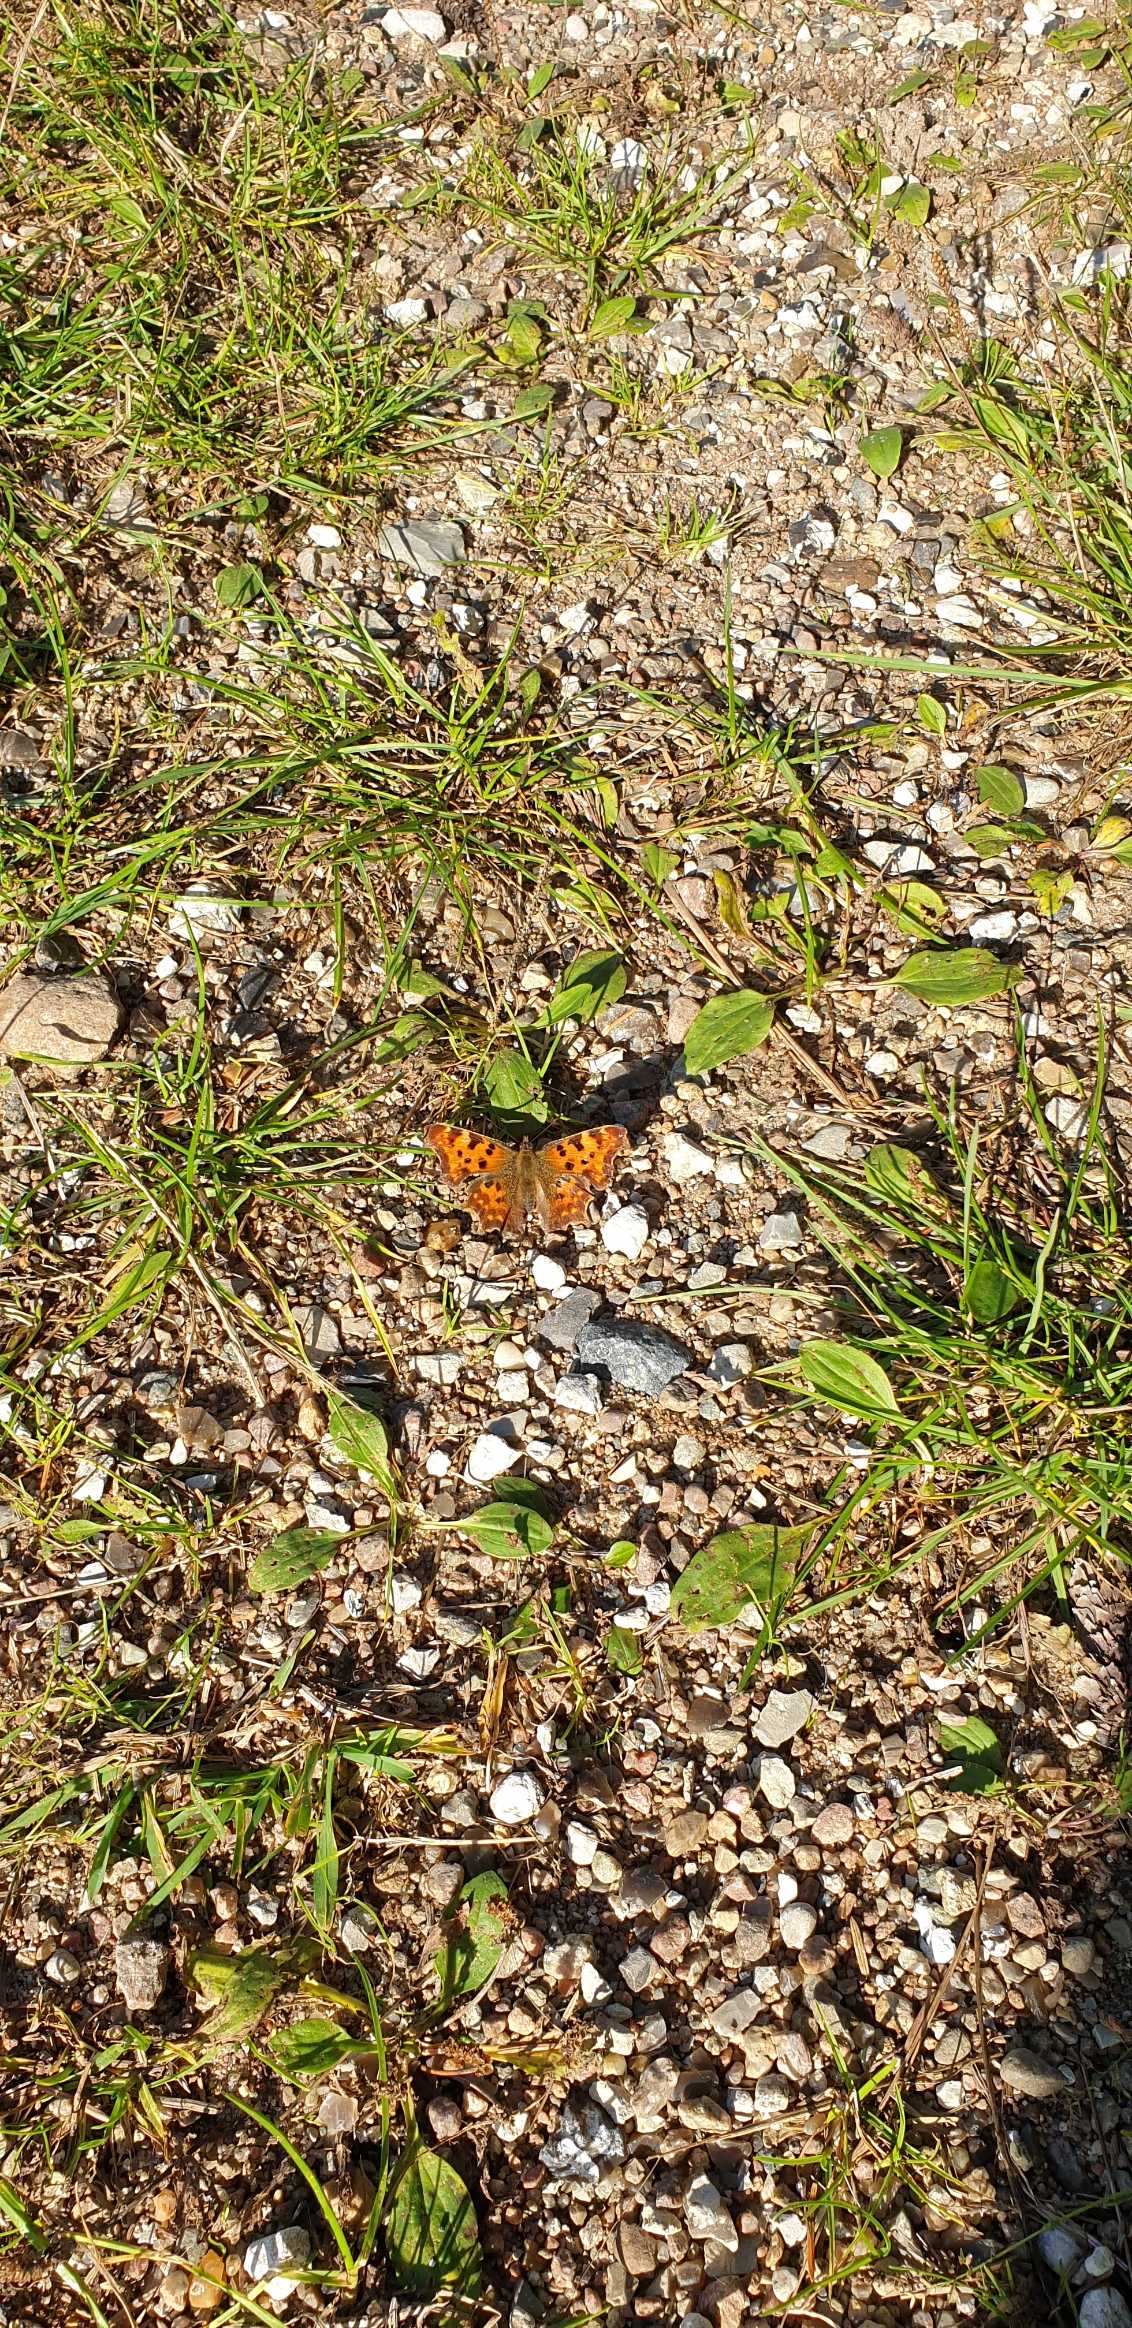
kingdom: Animalia
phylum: Arthropoda
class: Insecta
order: Lepidoptera
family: Nymphalidae
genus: Polygonia
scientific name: Polygonia c-album
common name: Det hvide C
